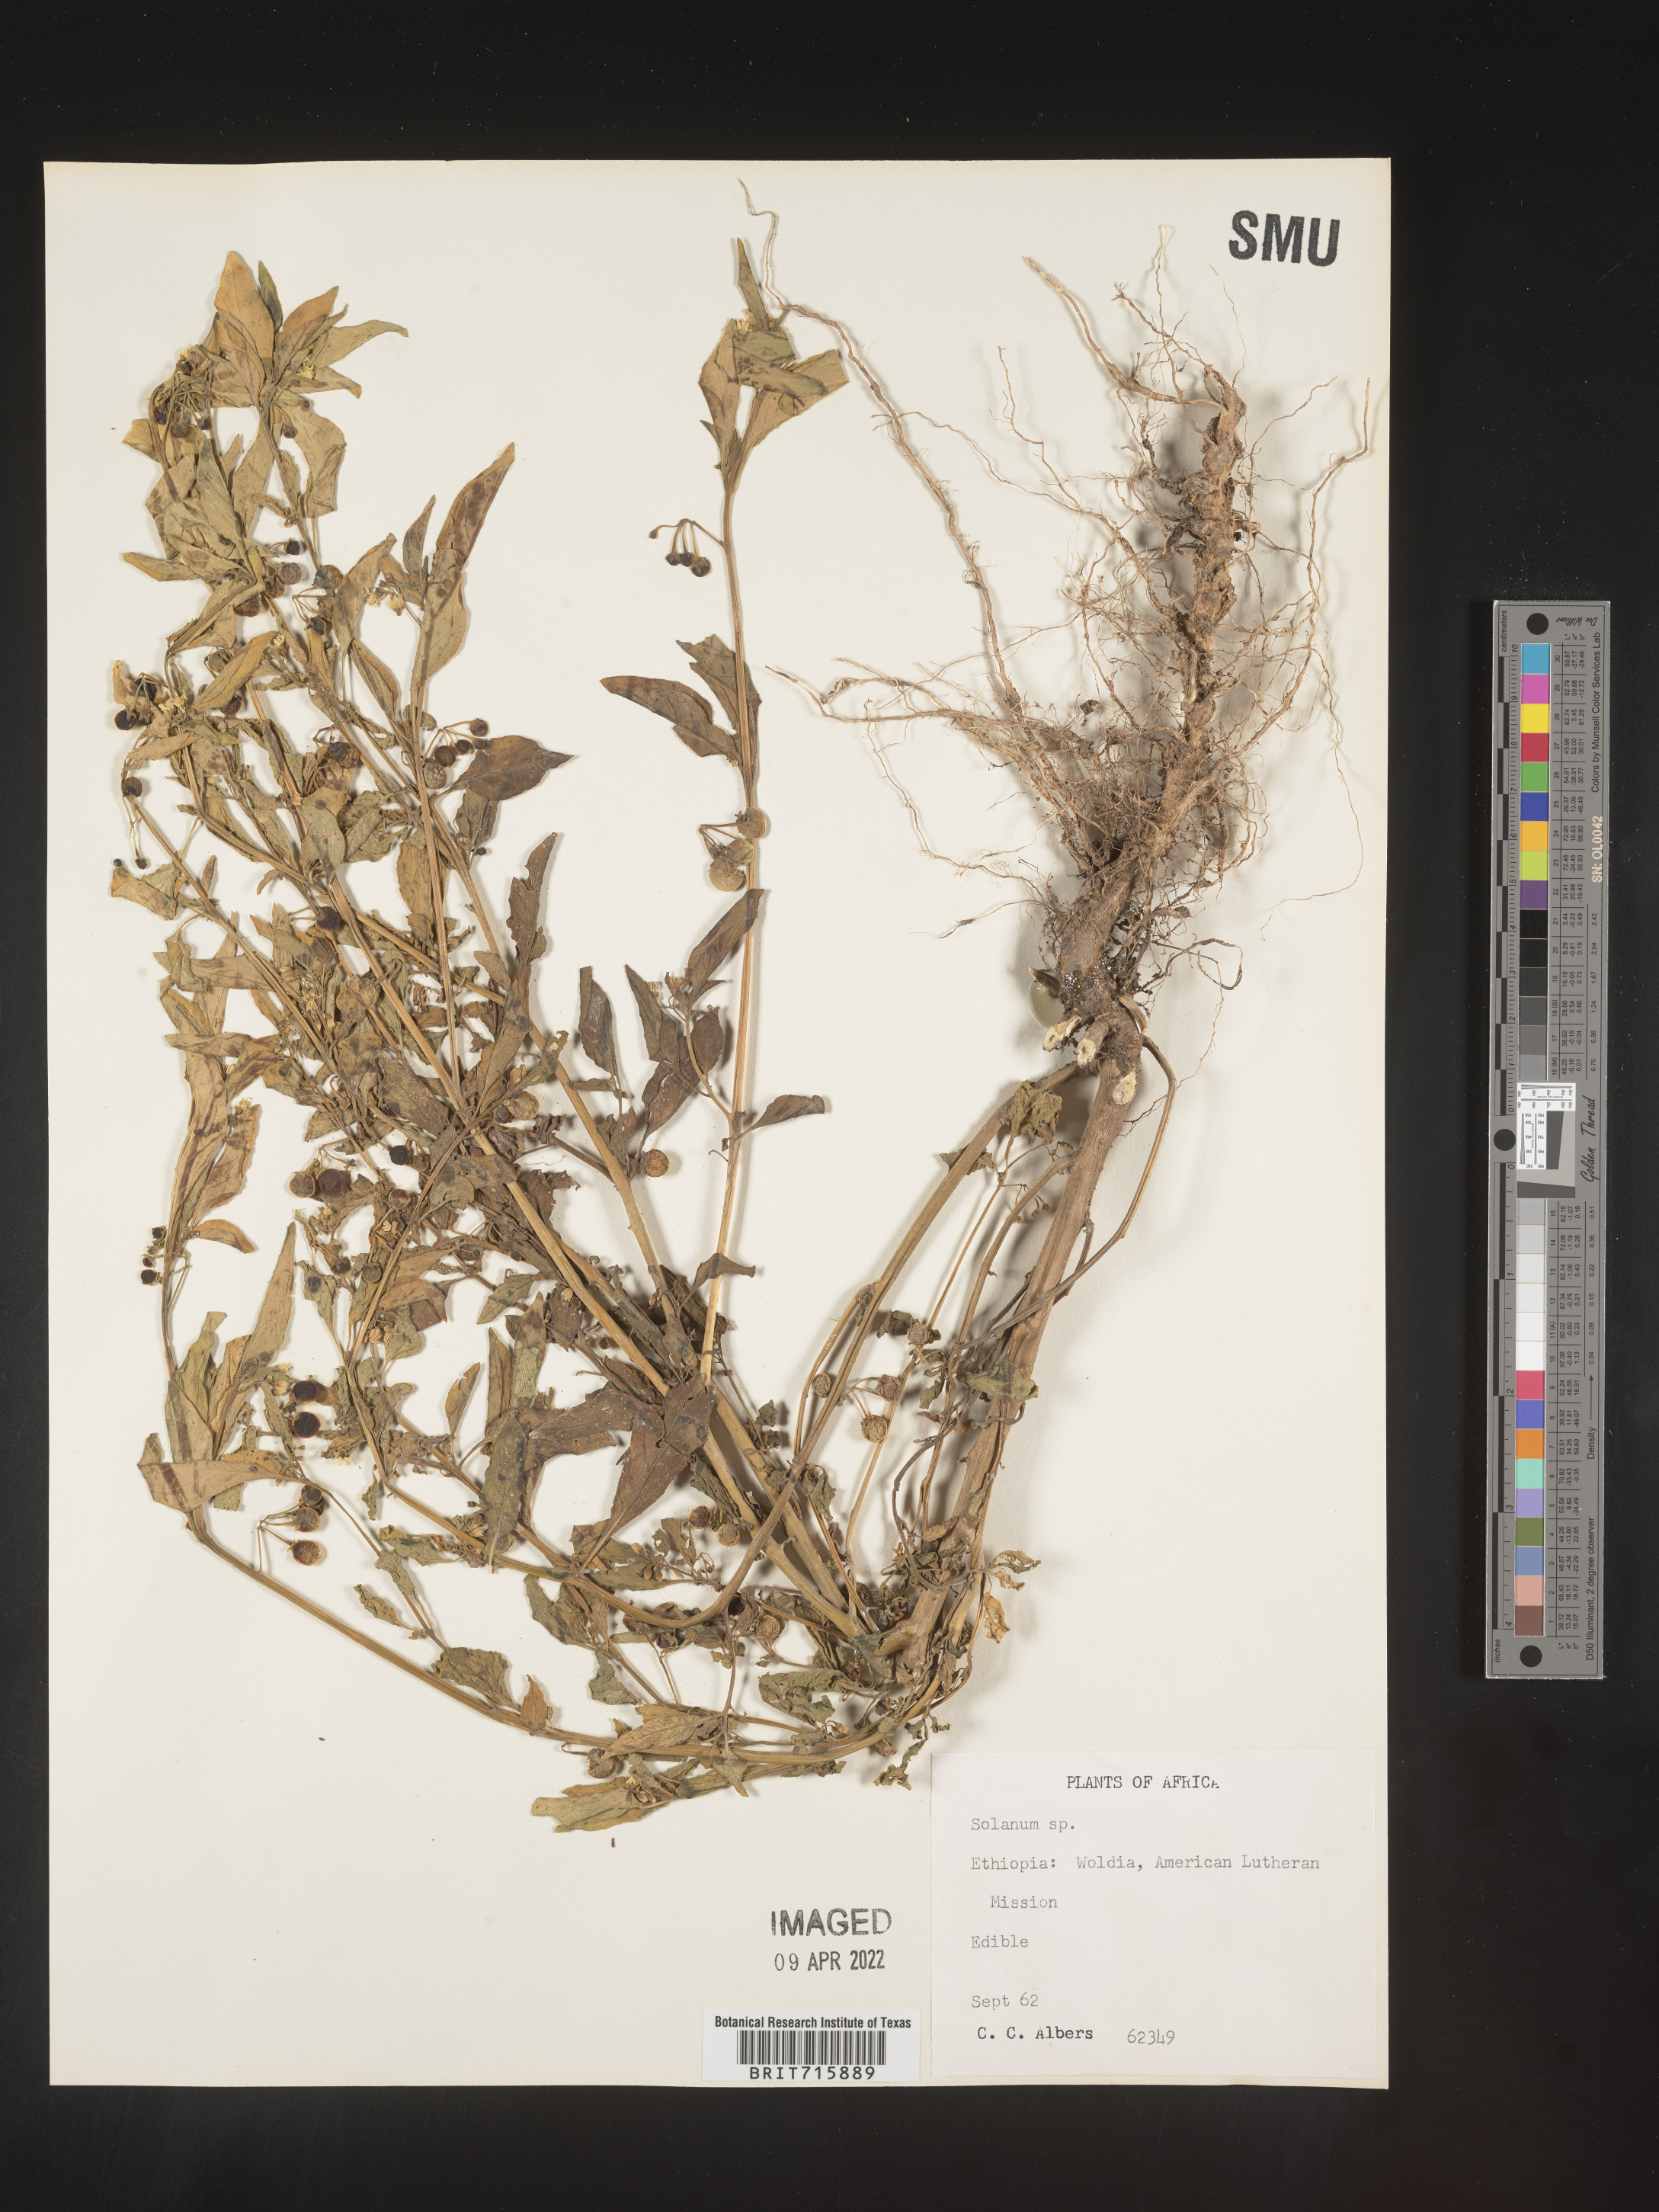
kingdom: Plantae
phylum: Tracheophyta
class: Magnoliopsida
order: Solanales
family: Solanaceae
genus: Solanum
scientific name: Solanum
